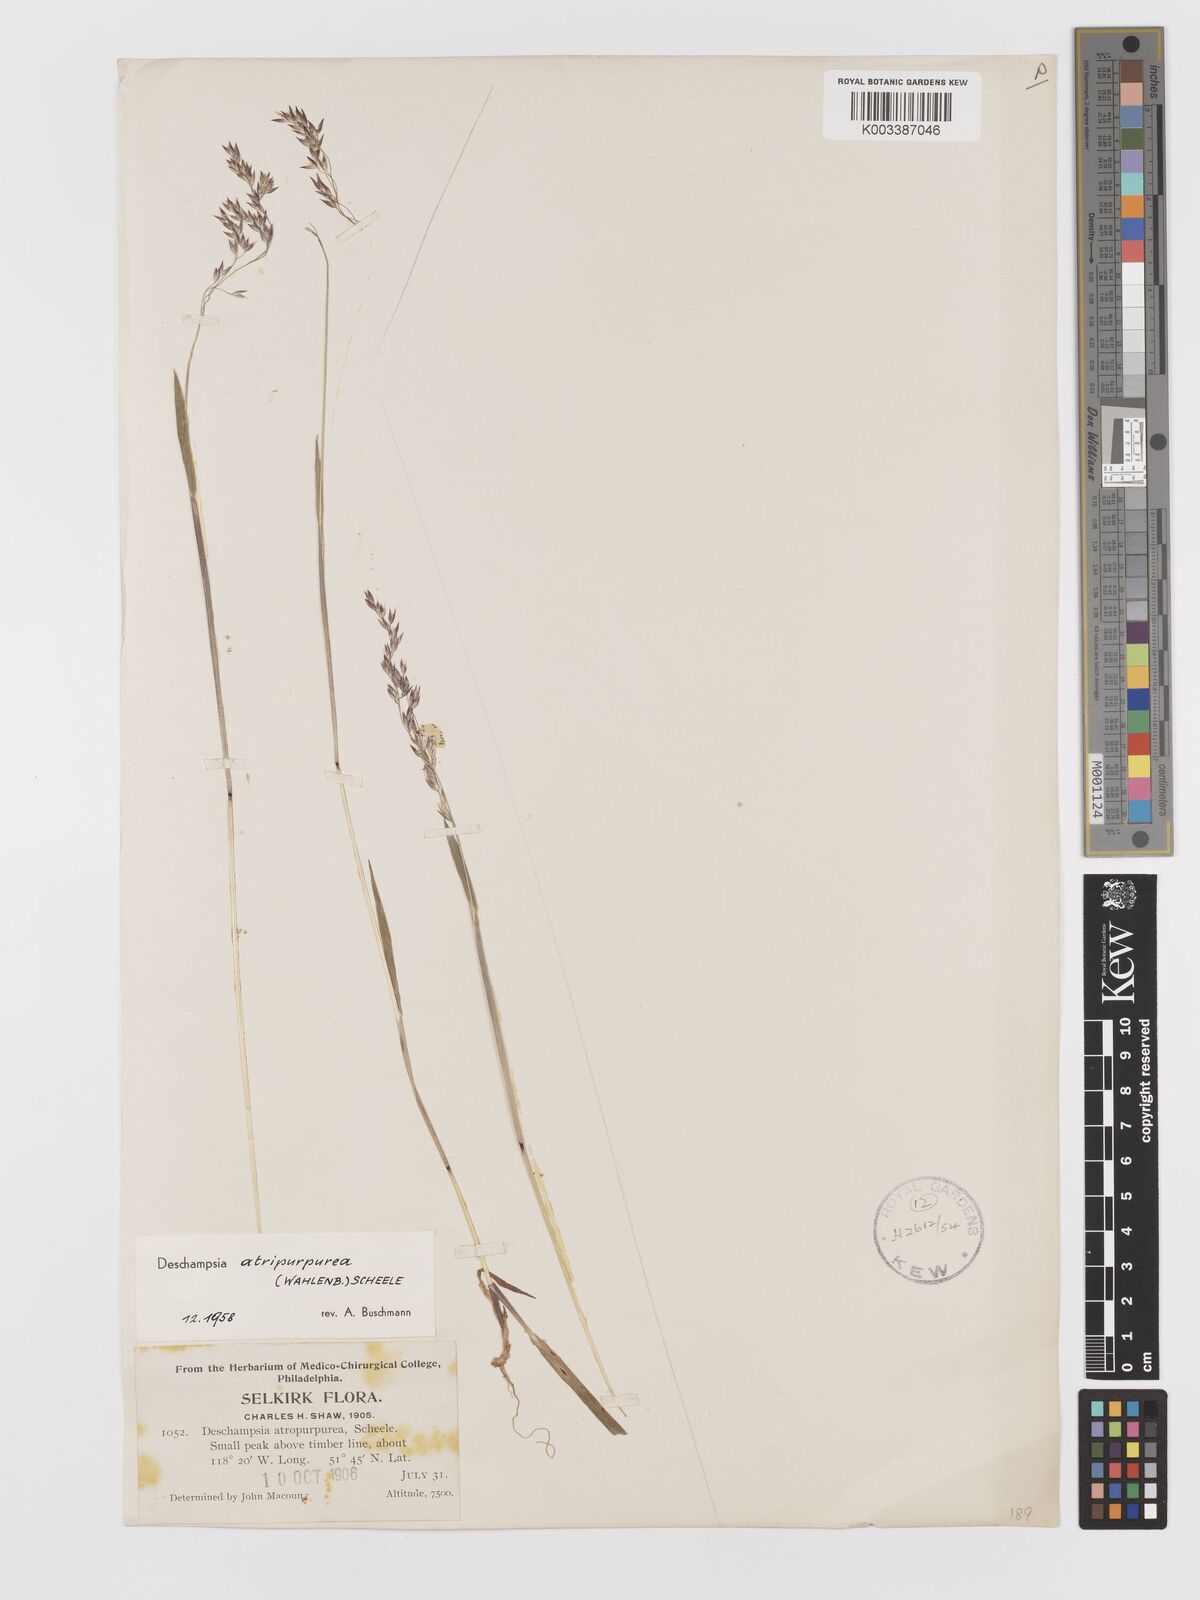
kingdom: Plantae
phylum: Tracheophyta
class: Liliopsida
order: Poales
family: Poaceae
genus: Vahlodea
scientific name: Vahlodea atropurpurea
